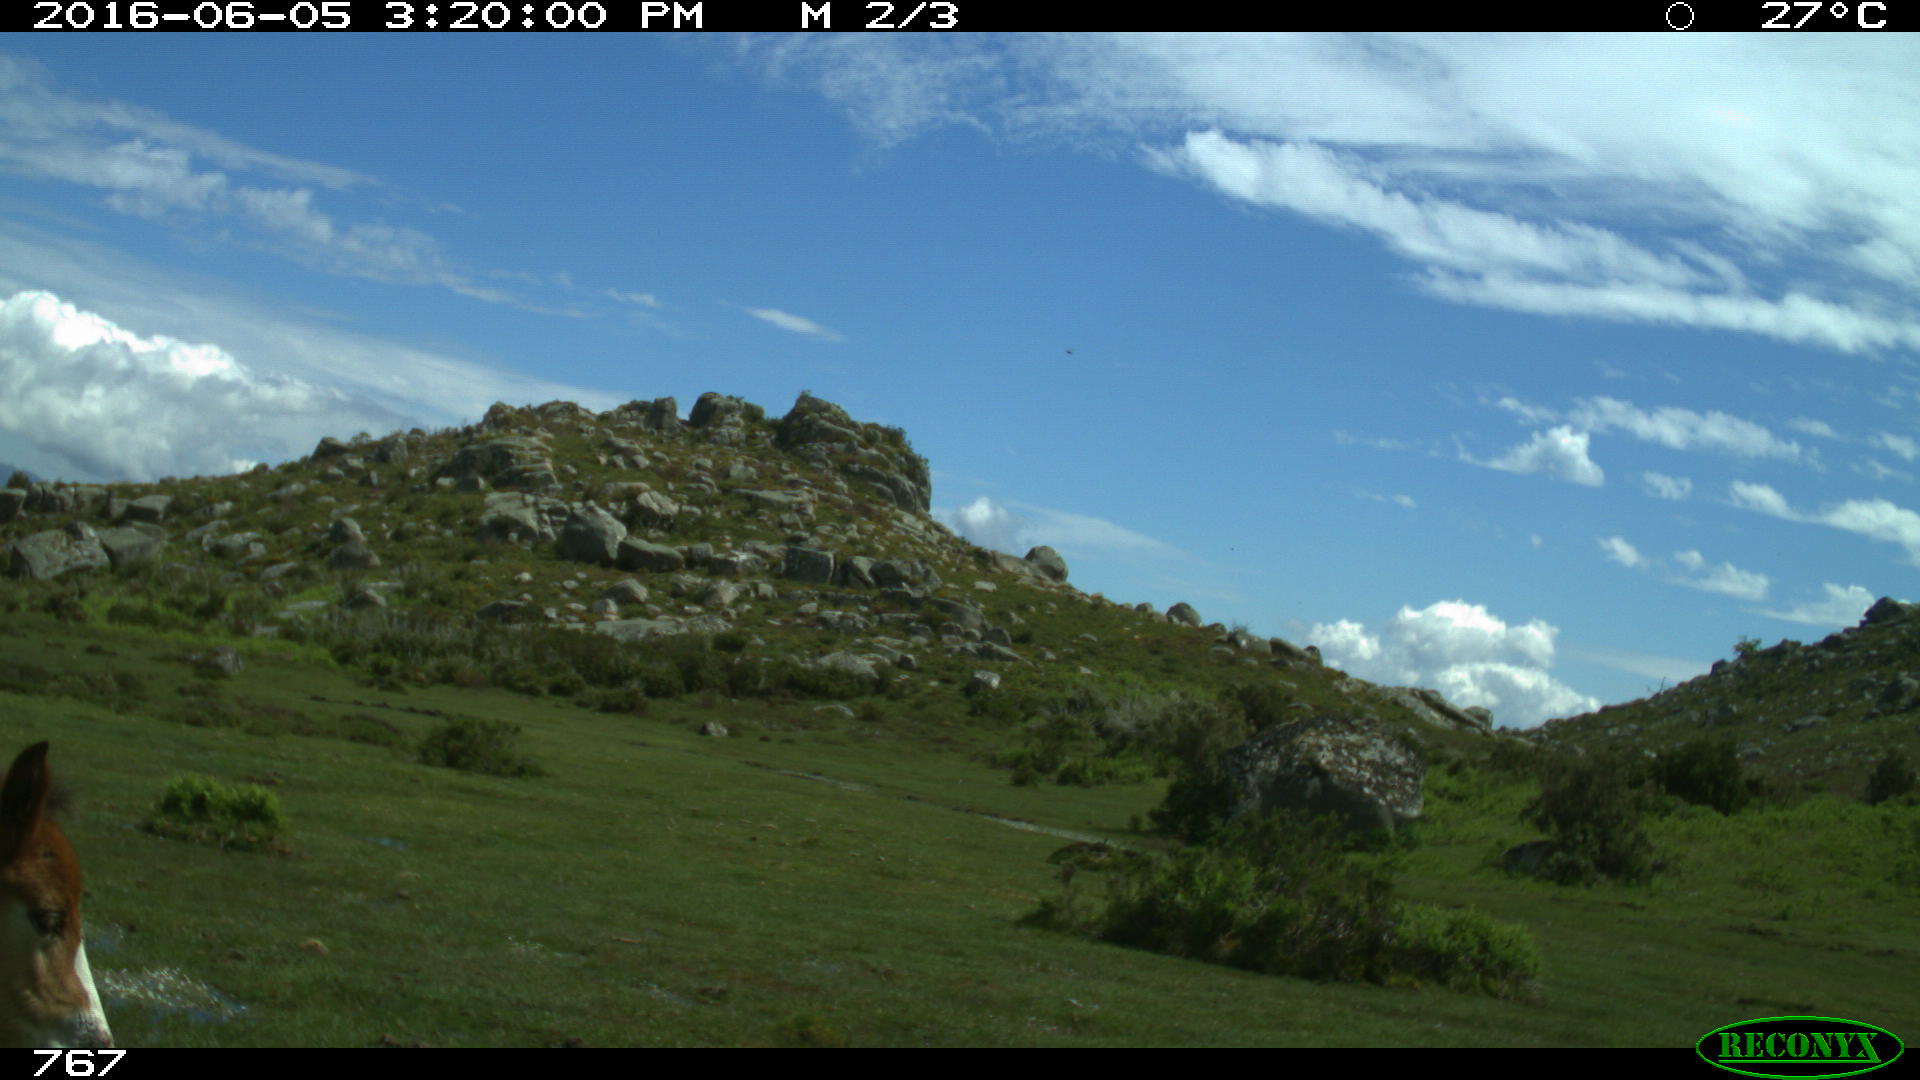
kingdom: Animalia
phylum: Chordata
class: Mammalia
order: Perissodactyla
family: Equidae
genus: Equus
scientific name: Equus caballus
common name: Horse
